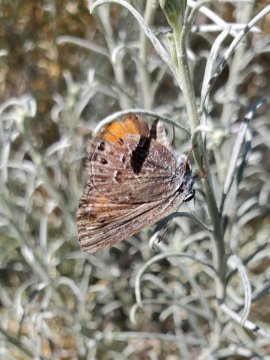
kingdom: Animalia
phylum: Arthropoda
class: Insecta
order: Lepidoptera
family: Lycaenidae
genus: Satyrium
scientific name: Satyrium behrii
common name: Behr's Hairstreak
